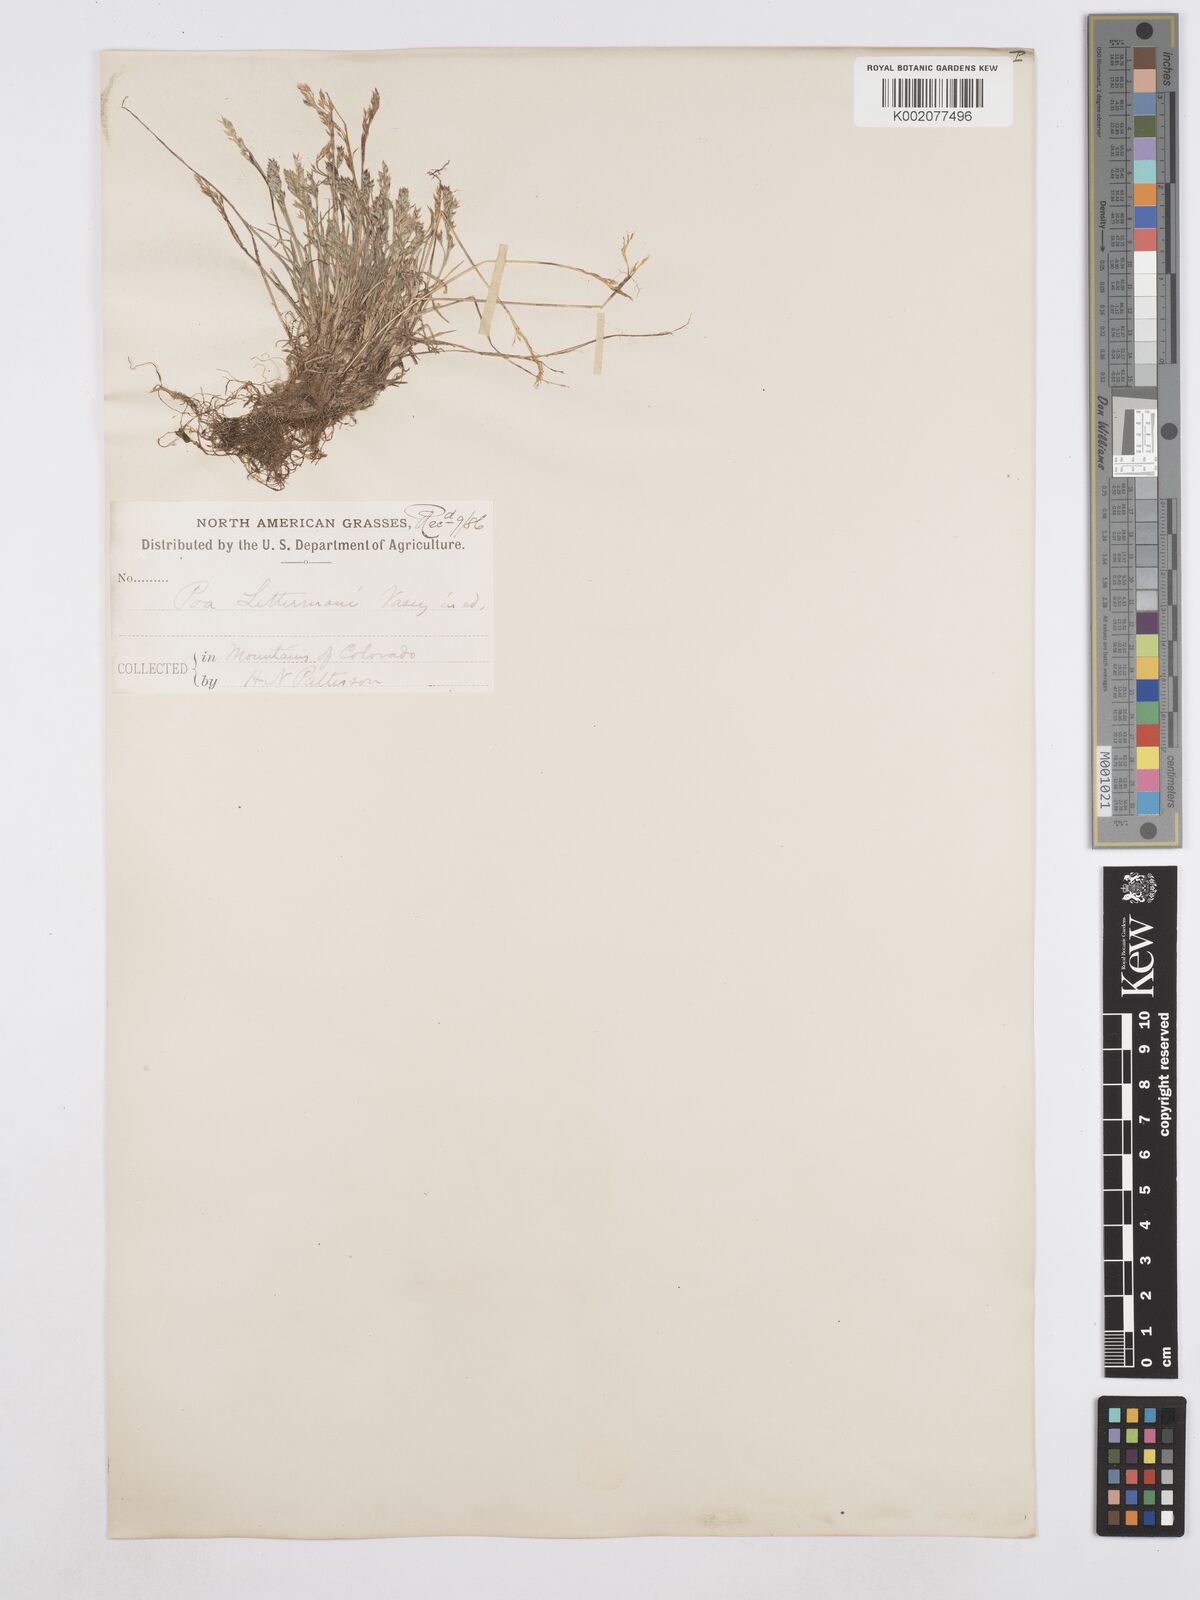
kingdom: Plantae
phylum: Tracheophyta
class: Liliopsida
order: Poales
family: Poaceae
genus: Poa
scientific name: Poa lettermanii
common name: Letterman's bluegrass
